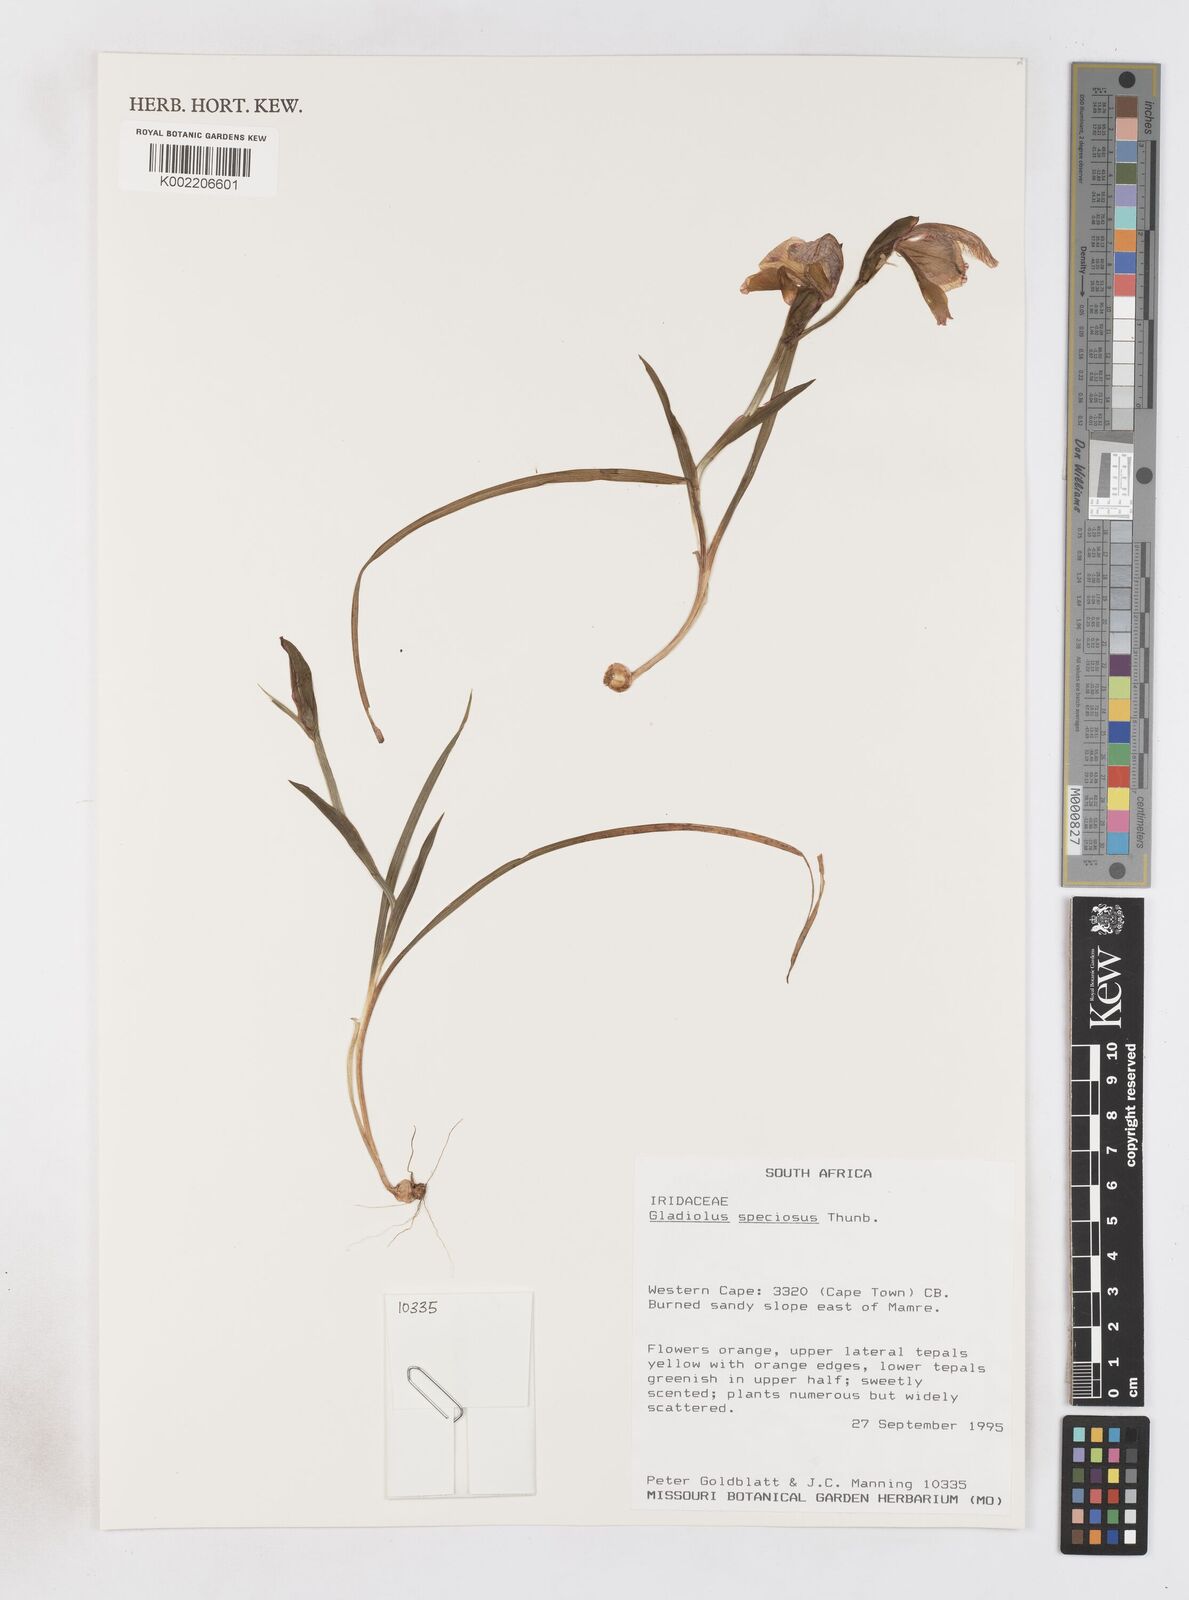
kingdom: Plantae
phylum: Tracheophyta
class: Liliopsida
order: Asparagales
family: Iridaceae
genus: Gladiolus
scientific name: Gladiolus speciosus
